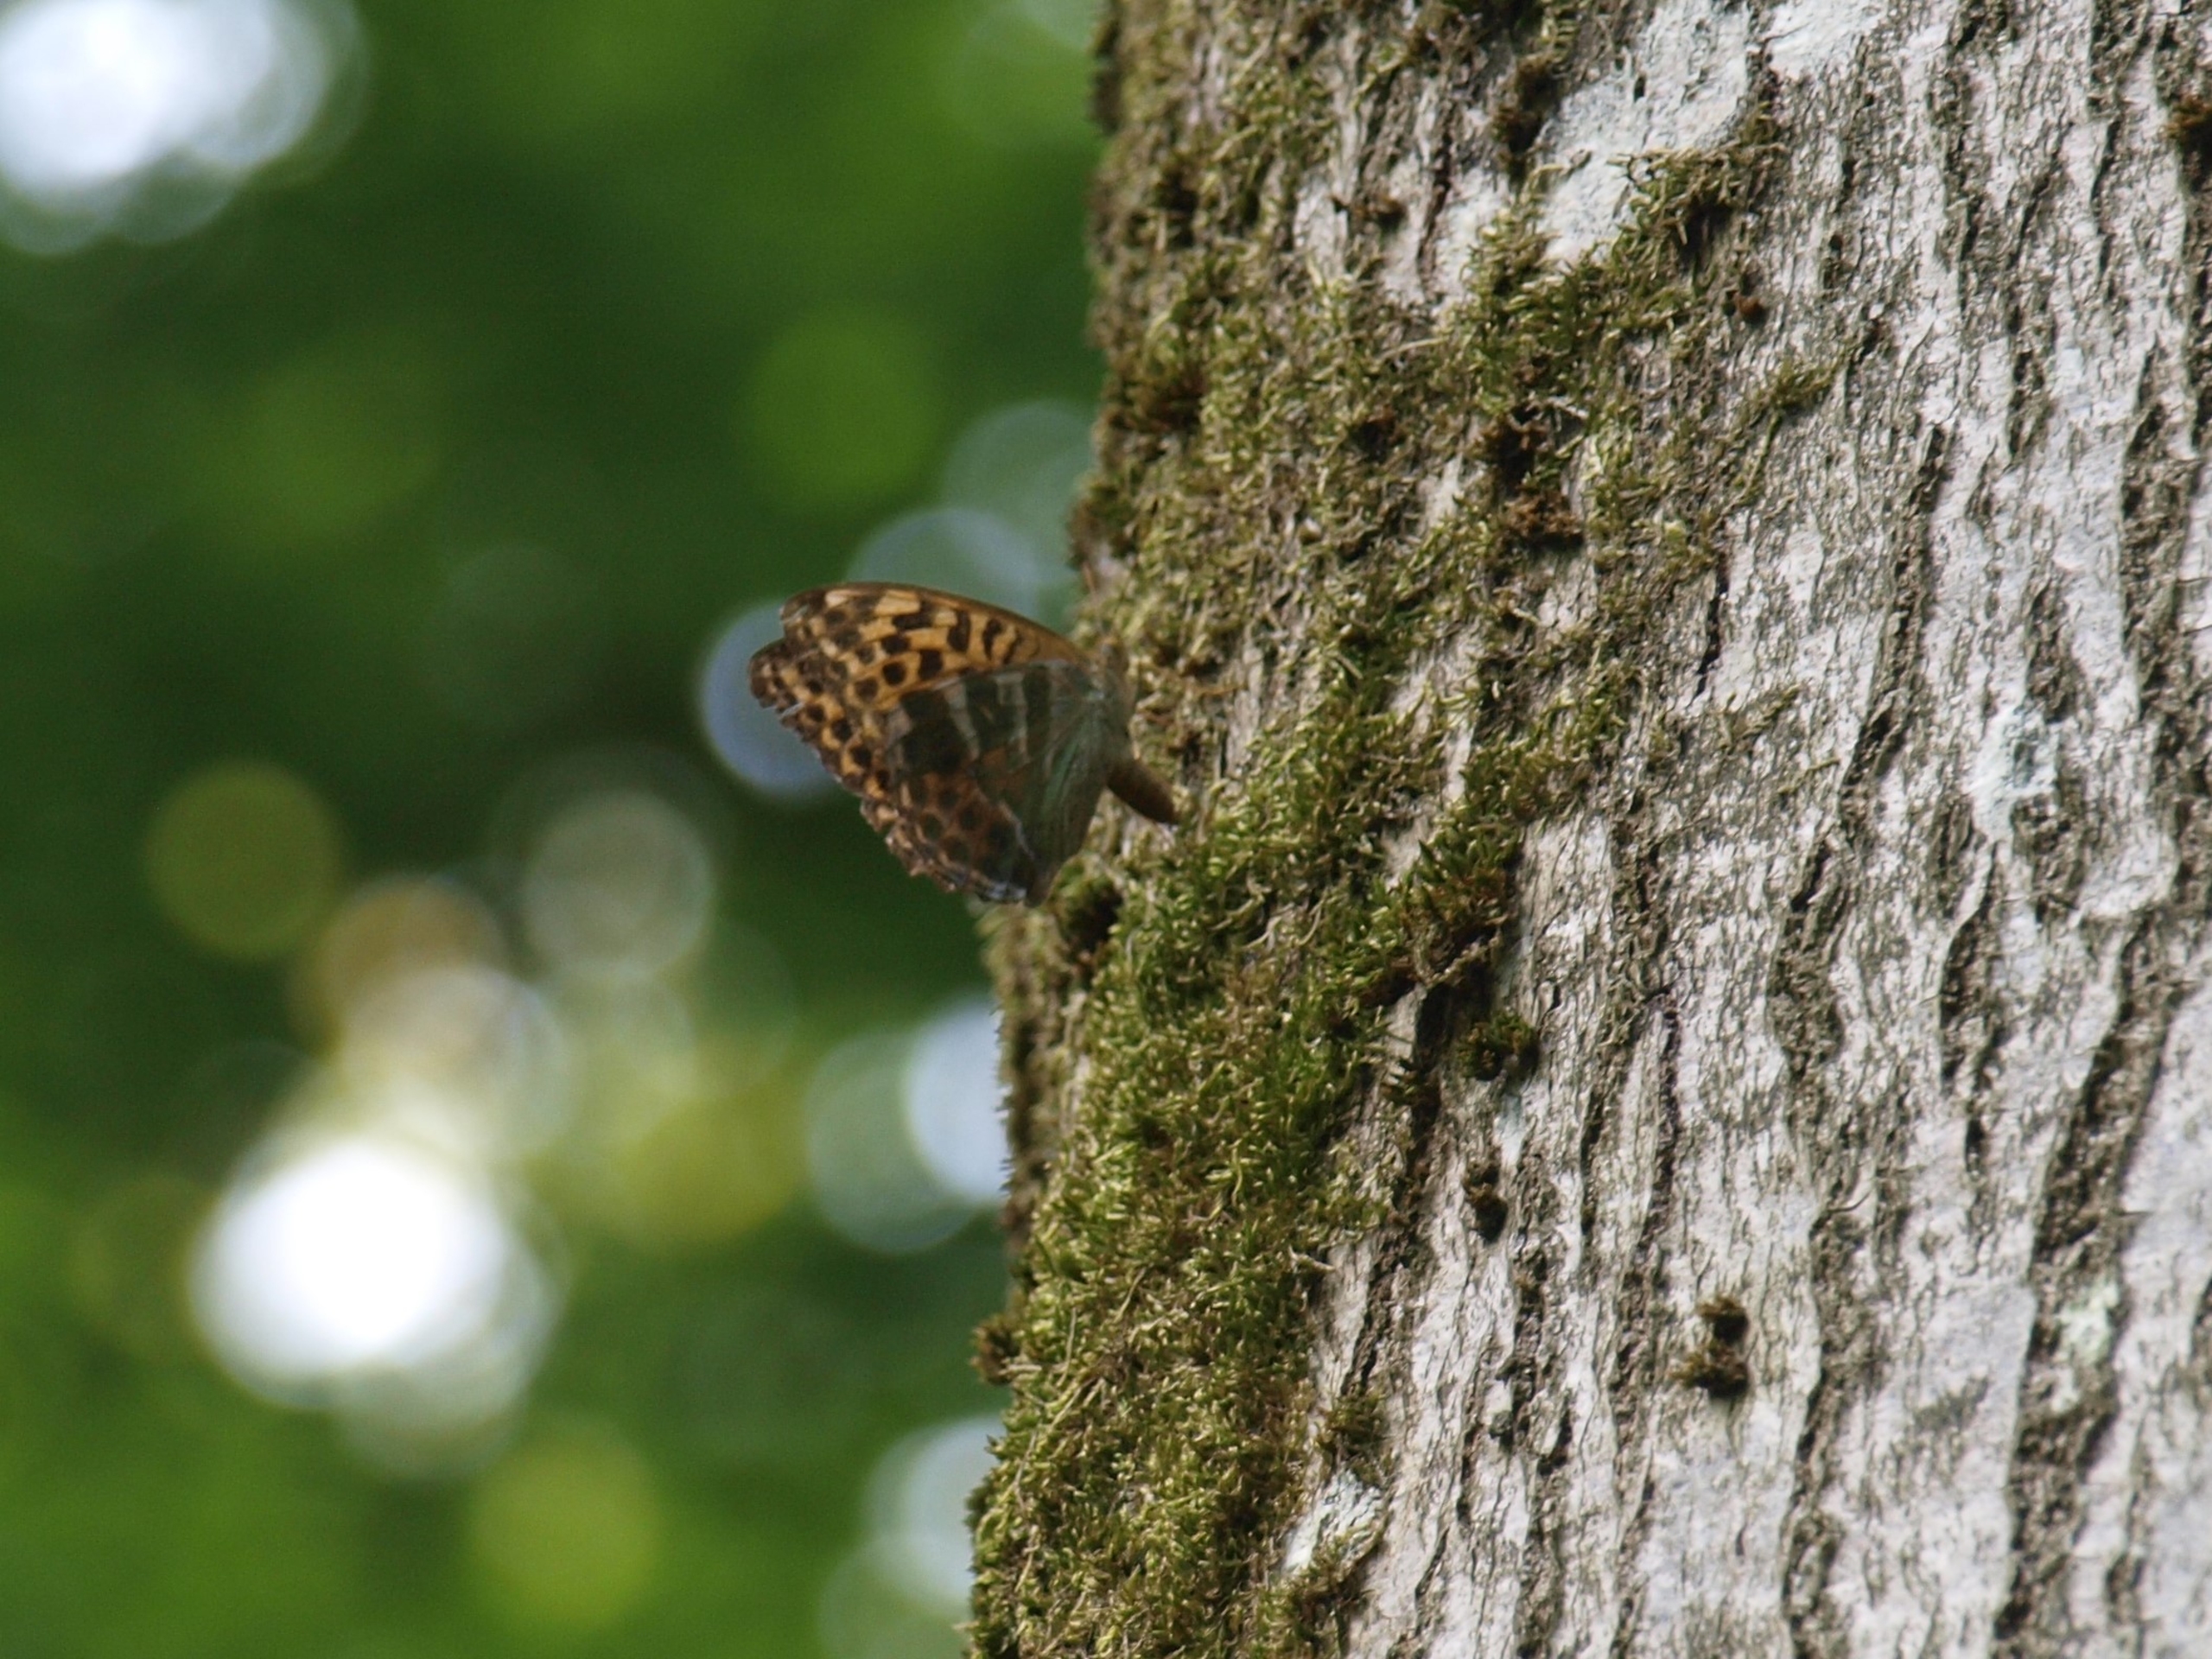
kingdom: Animalia
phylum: Arthropoda
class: Insecta
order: Lepidoptera
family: Nymphalidae
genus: Argynnis
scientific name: Argynnis paphia
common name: Kejserkåbe
